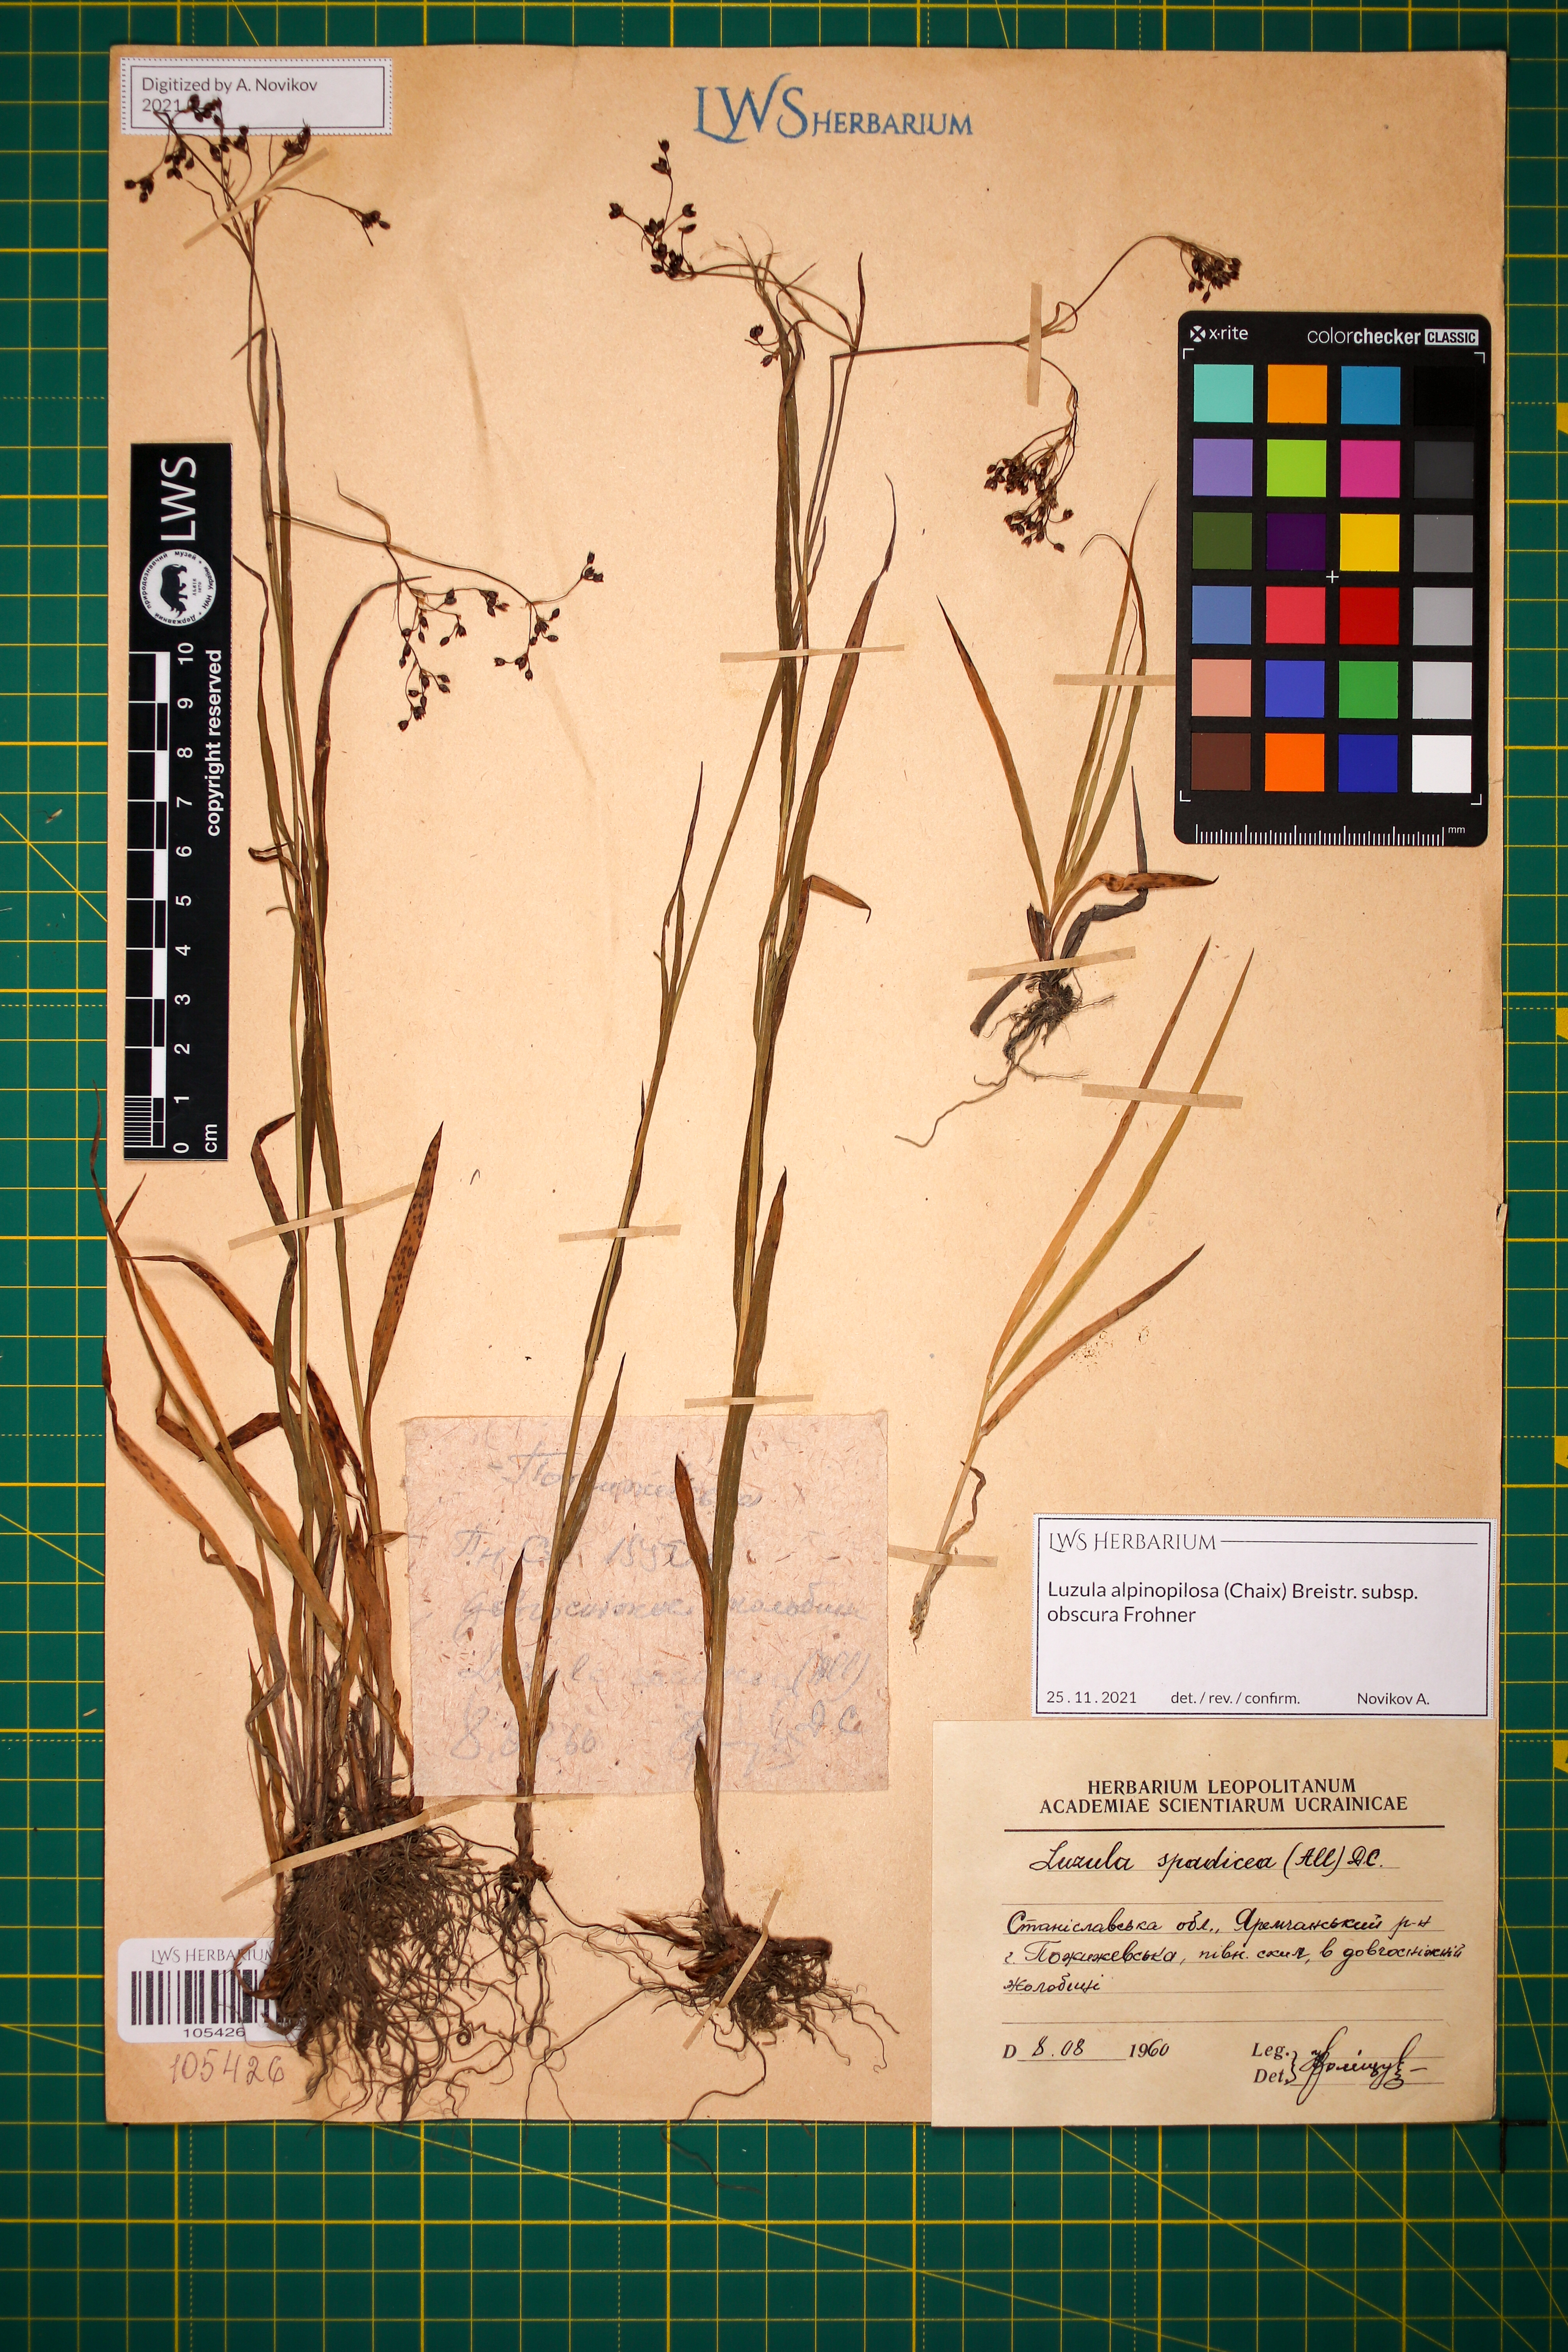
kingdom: Plantae
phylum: Tracheophyta
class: Liliopsida
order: Poales
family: Juncaceae
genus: Luzula
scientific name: Luzula alpinopilosa
